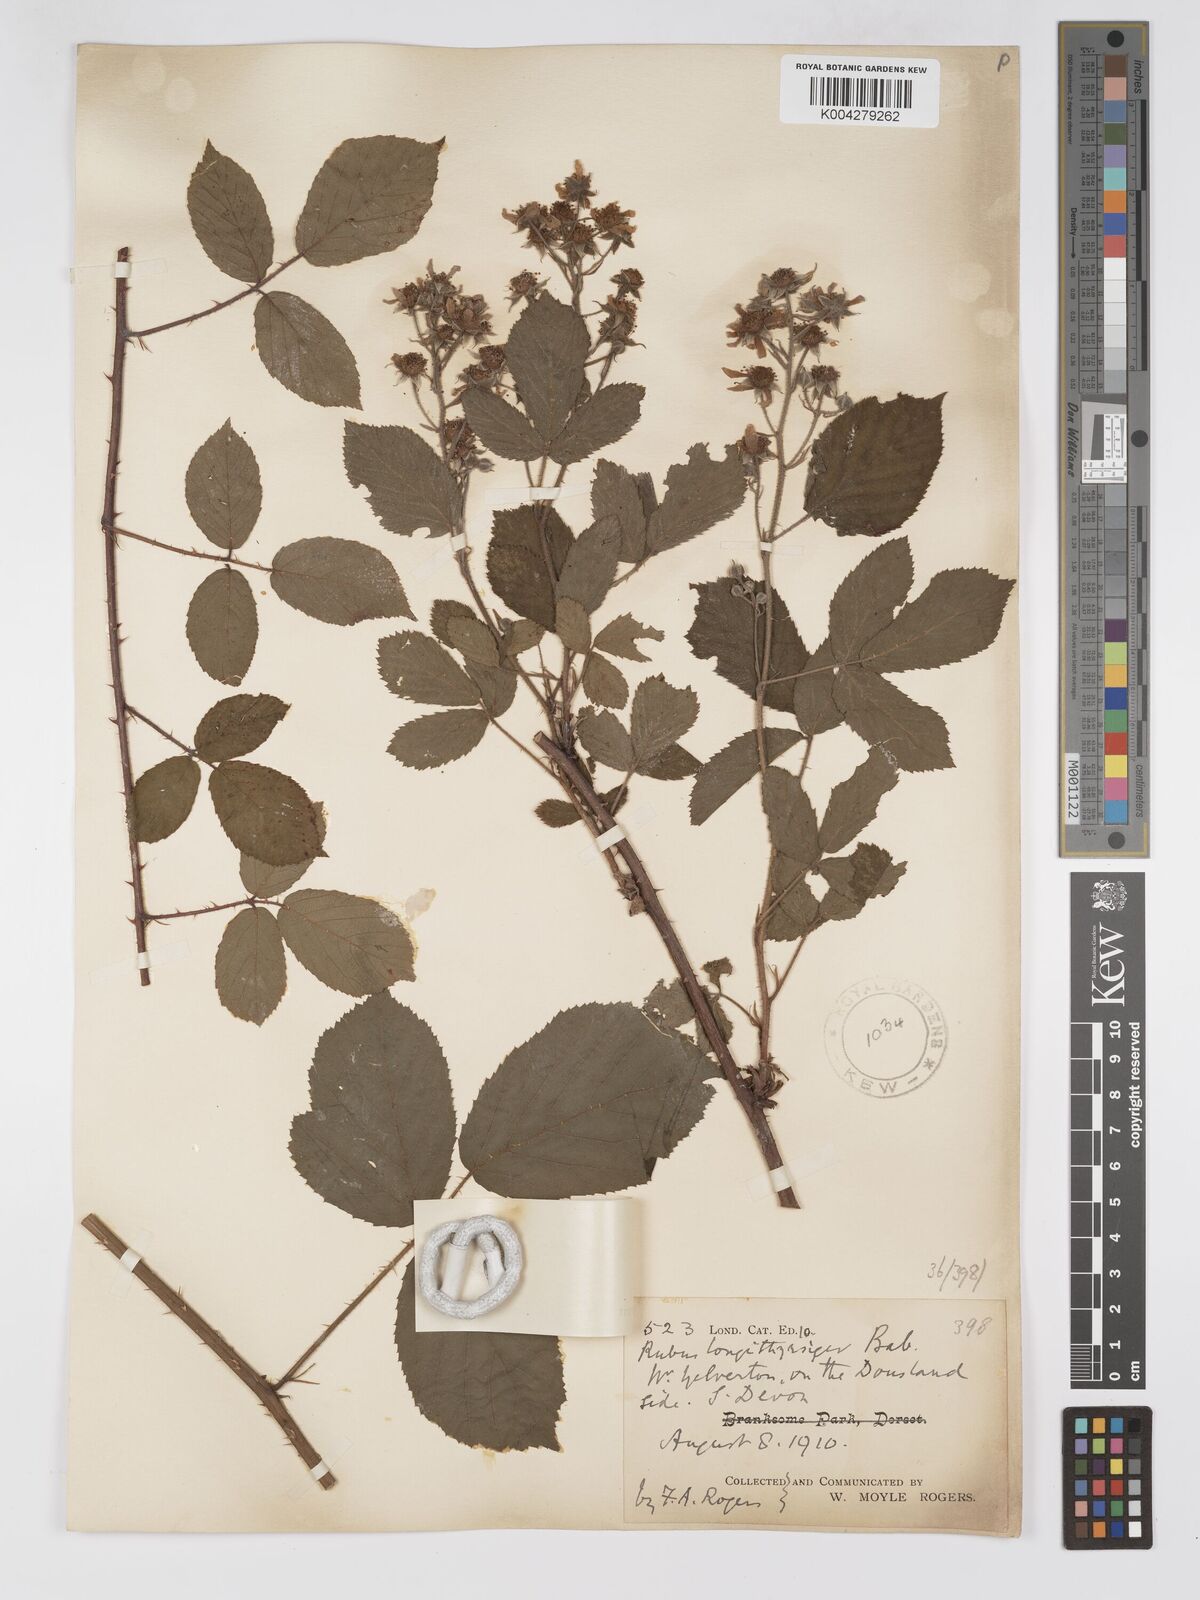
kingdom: Plantae
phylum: Tracheophyta
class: Magnoliopsida
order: Rosales
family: Rosaceae
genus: Rubus
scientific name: Rubus longithyrsiger
